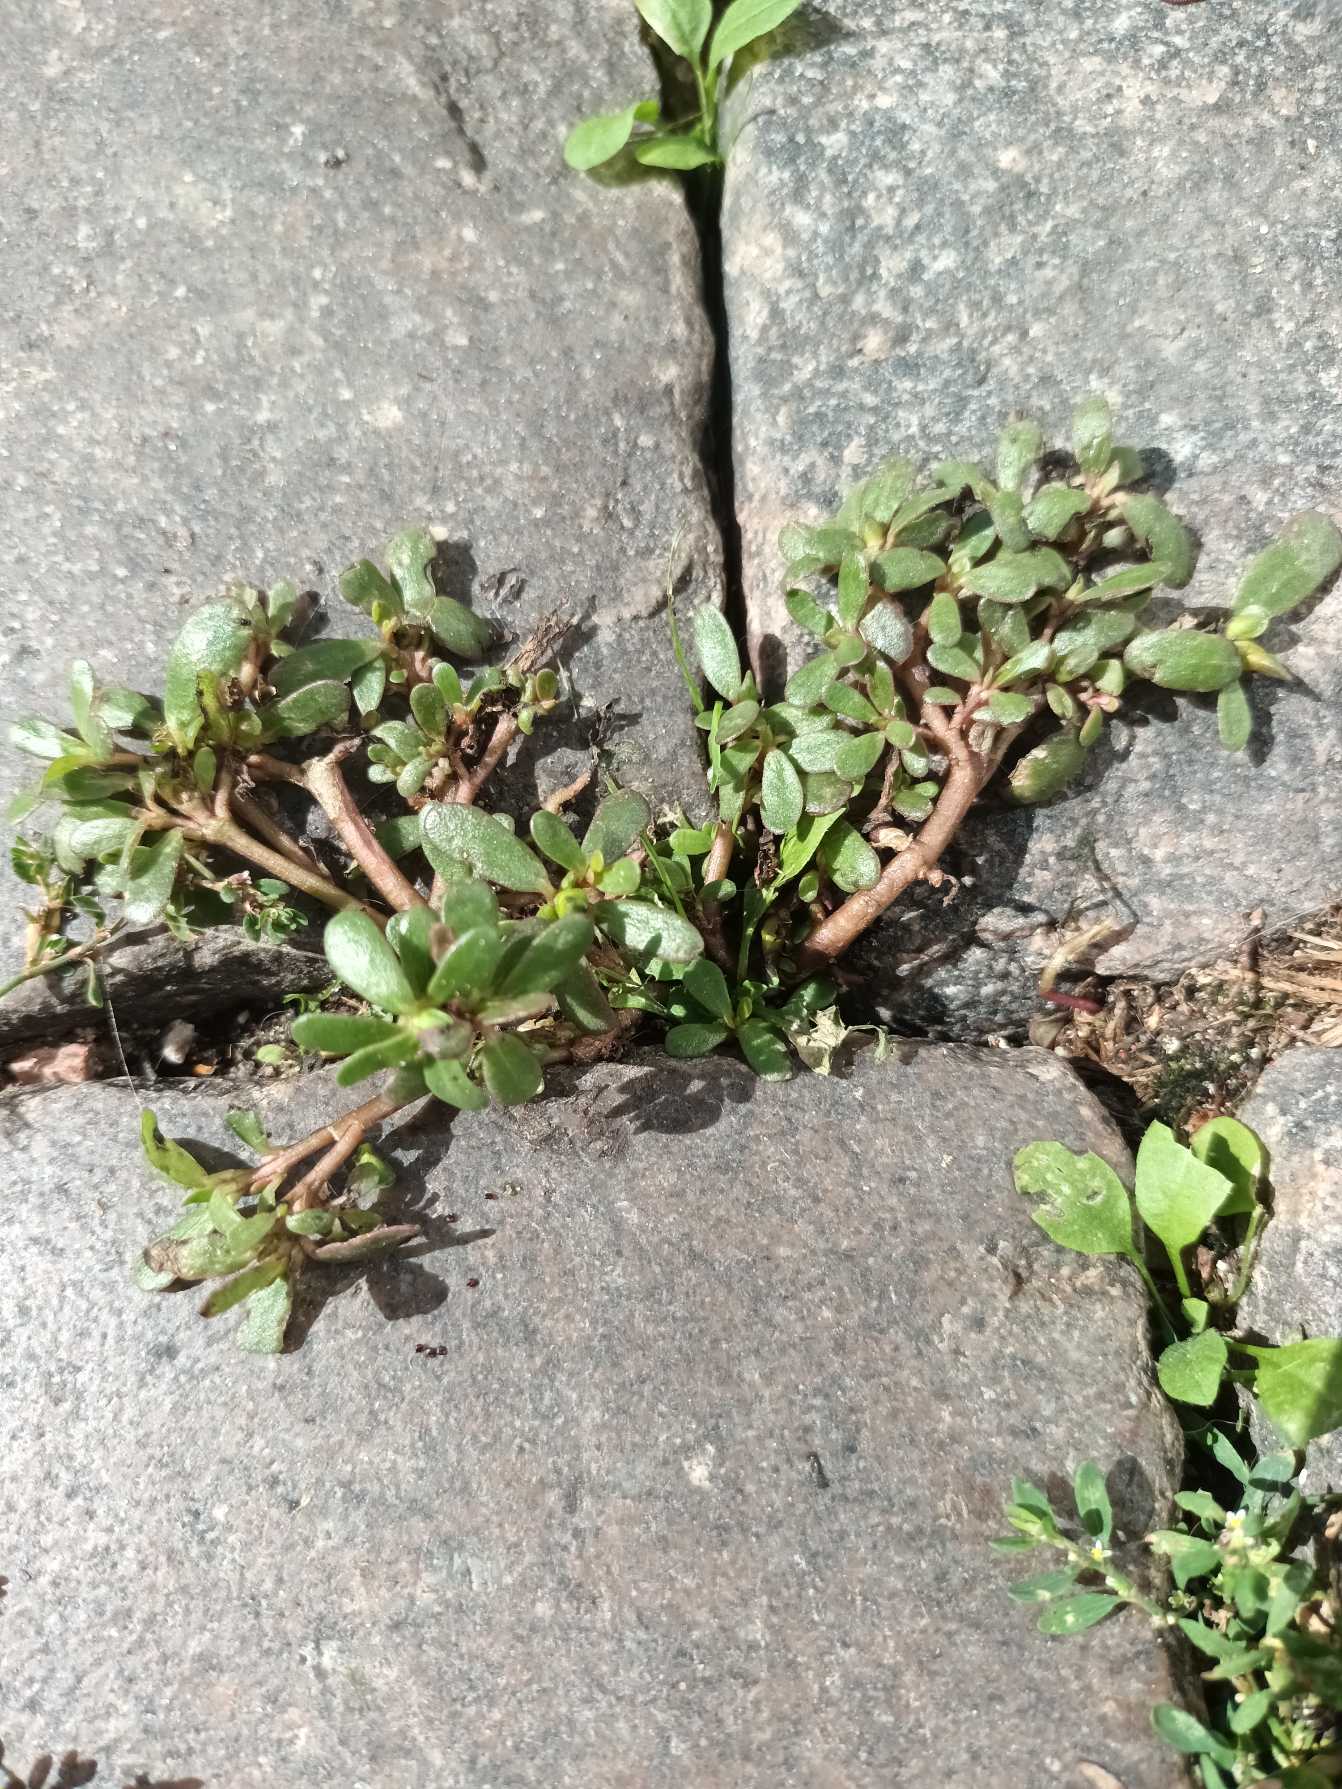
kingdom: Plantae
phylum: Tracheophyta
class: Magnoliopsida
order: Caryophyllales
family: Portulacaceae
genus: Portulaca
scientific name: Portulaca oleracea
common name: Portulak
